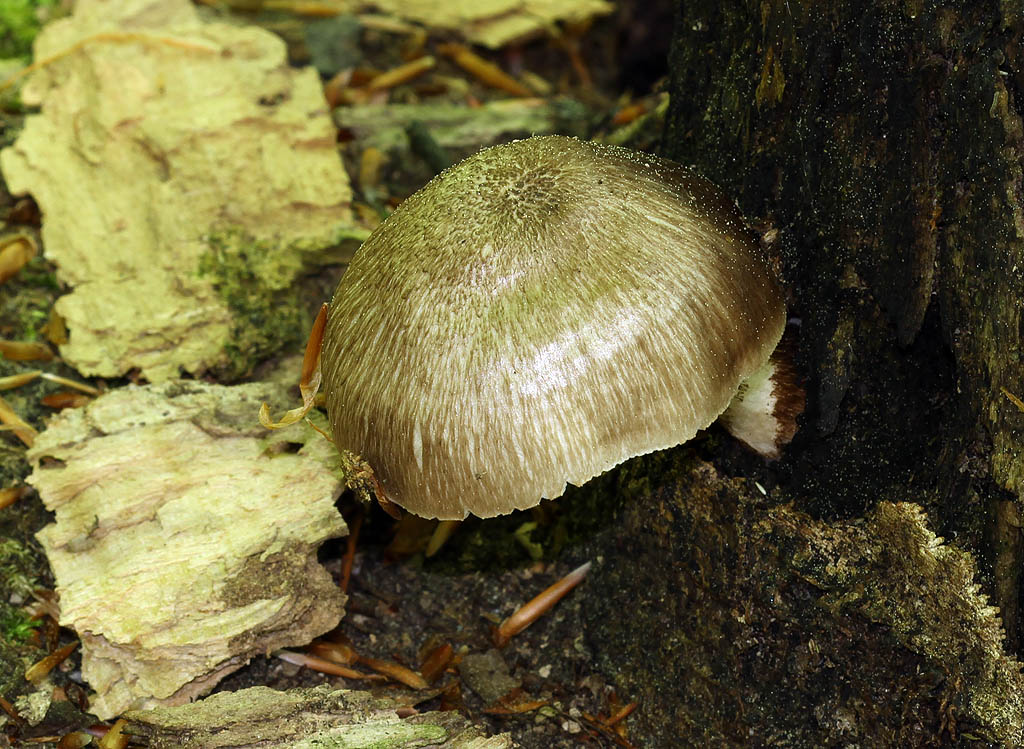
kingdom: Fungi
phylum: Basidiomycota
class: Agaricomycetes
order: Agaricales
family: Pluteaceae
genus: Pluteus
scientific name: Pluteus cervinus
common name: sodfarvet skærmhat
